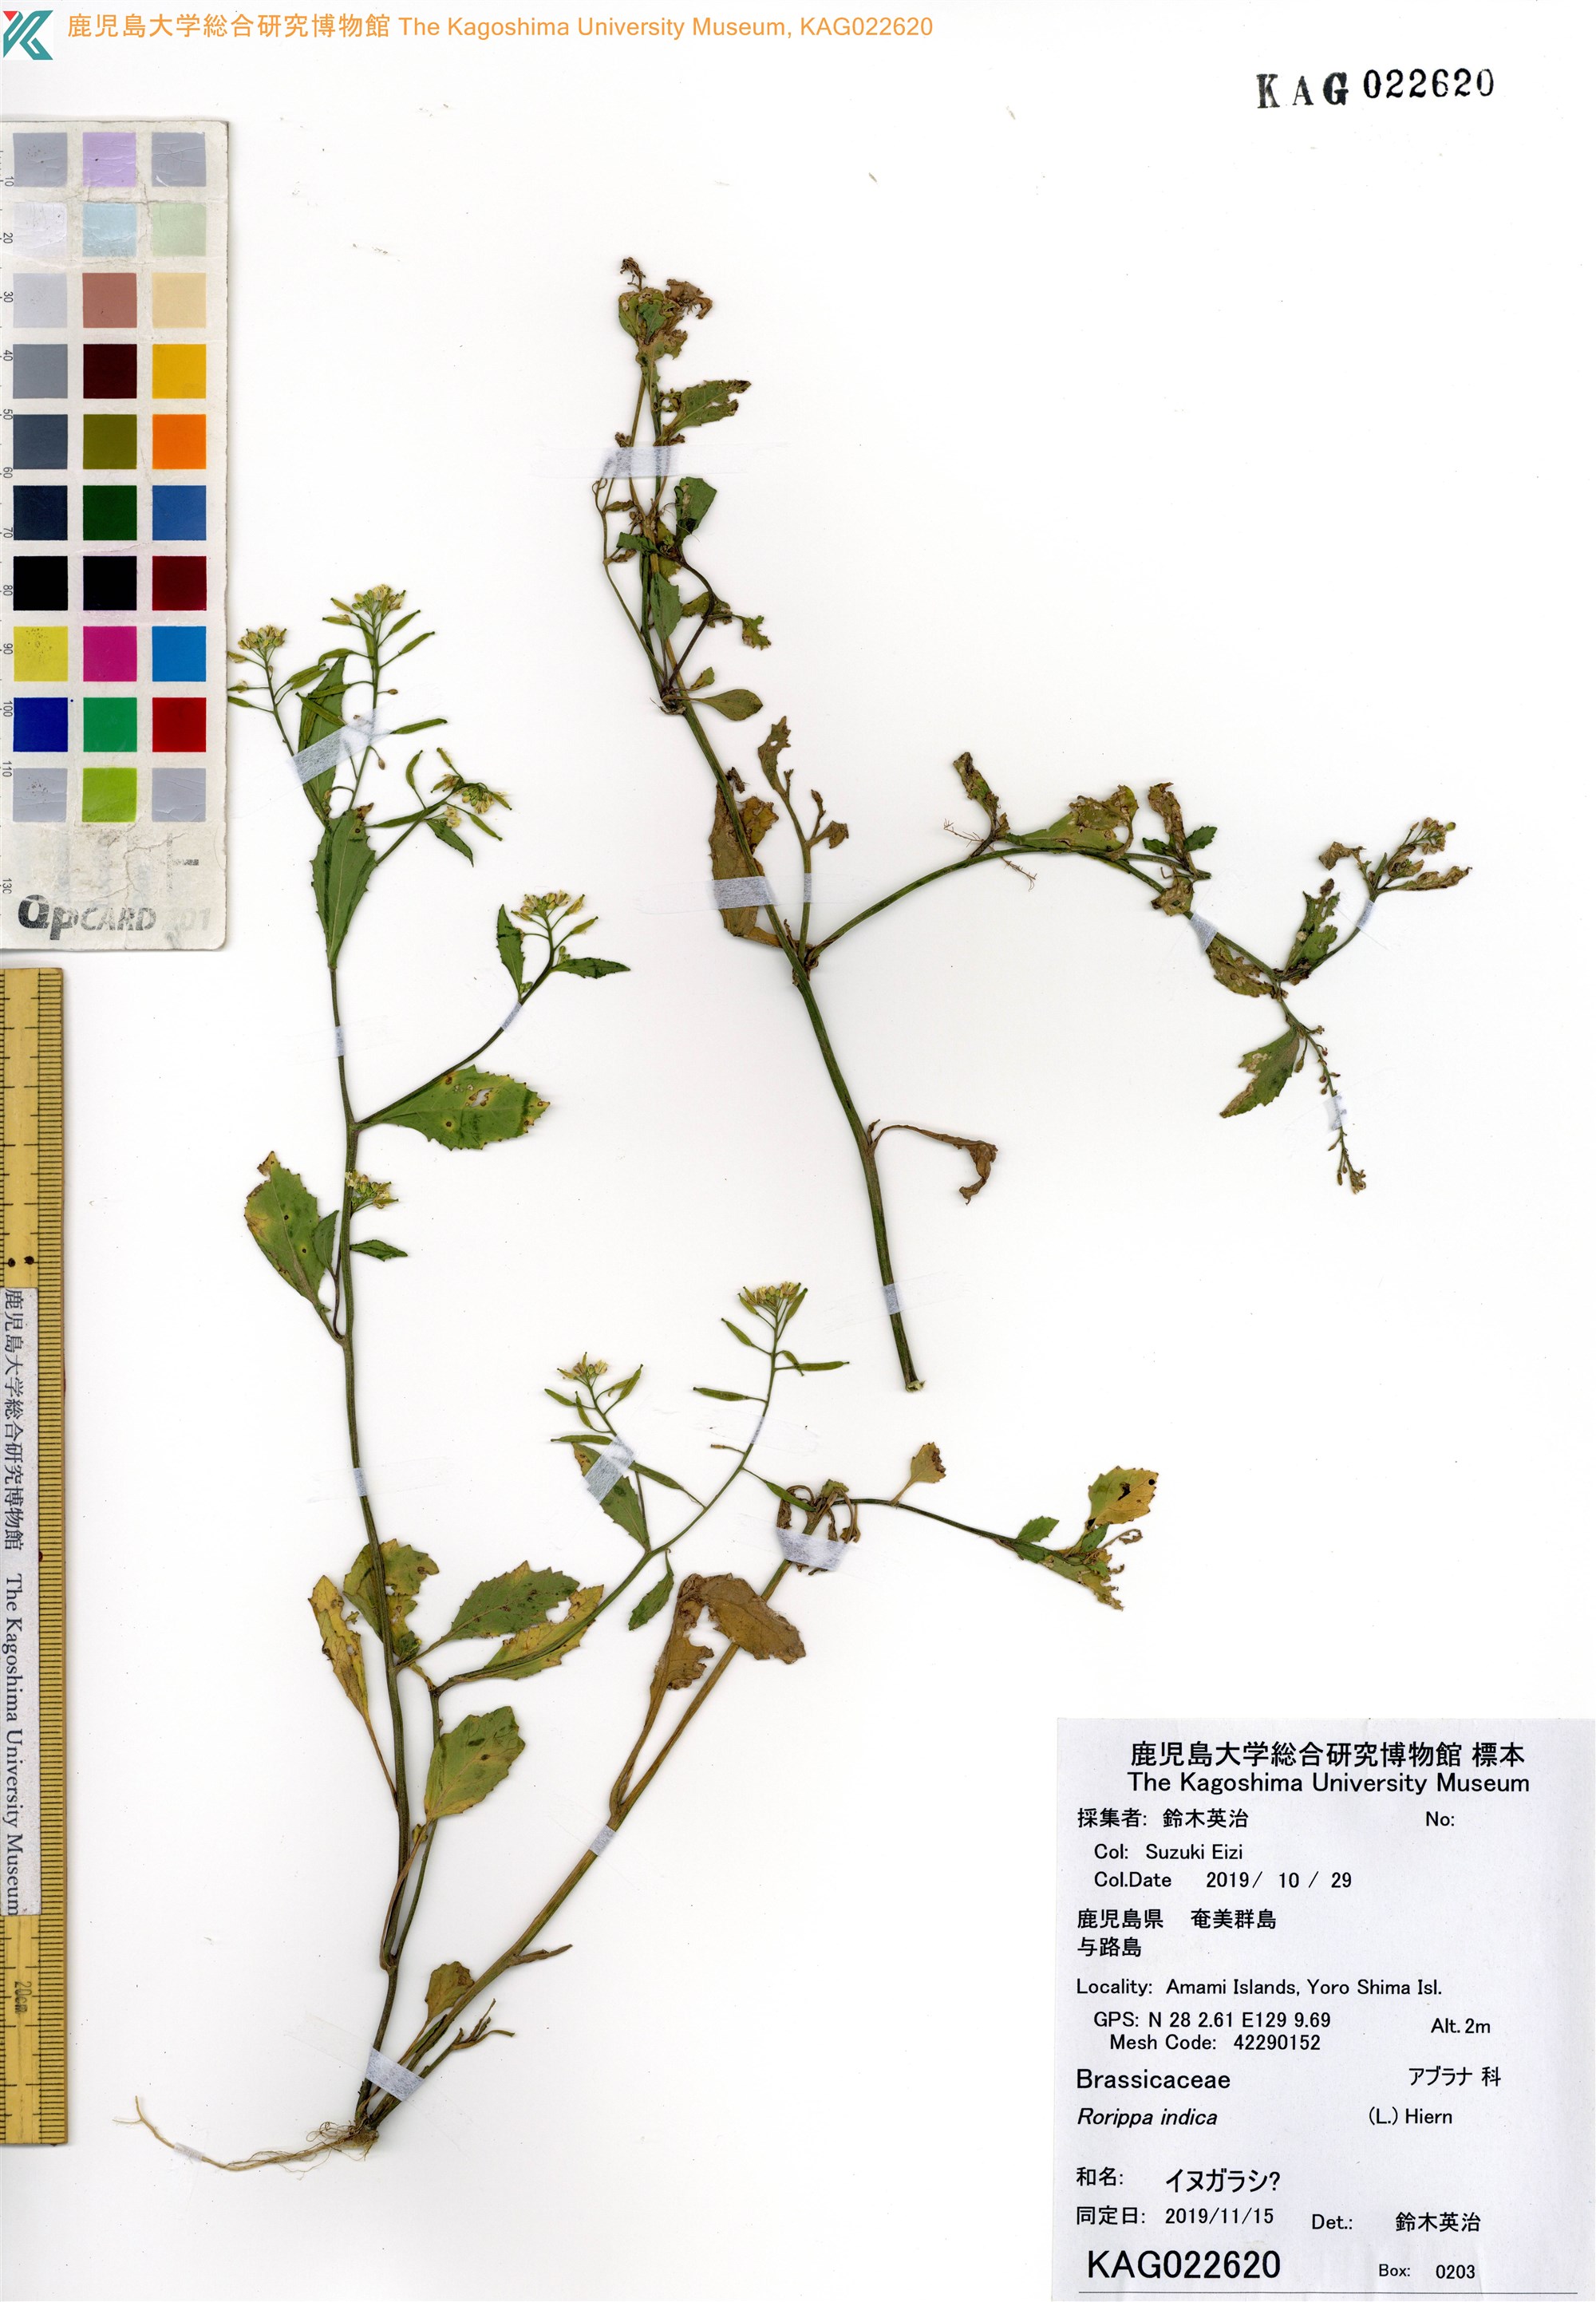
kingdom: Plantae
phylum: Tracheophyta
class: Magnoliopsida
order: Brassicales
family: Brassicaceae
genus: Rorippa
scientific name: Rorippa indica
